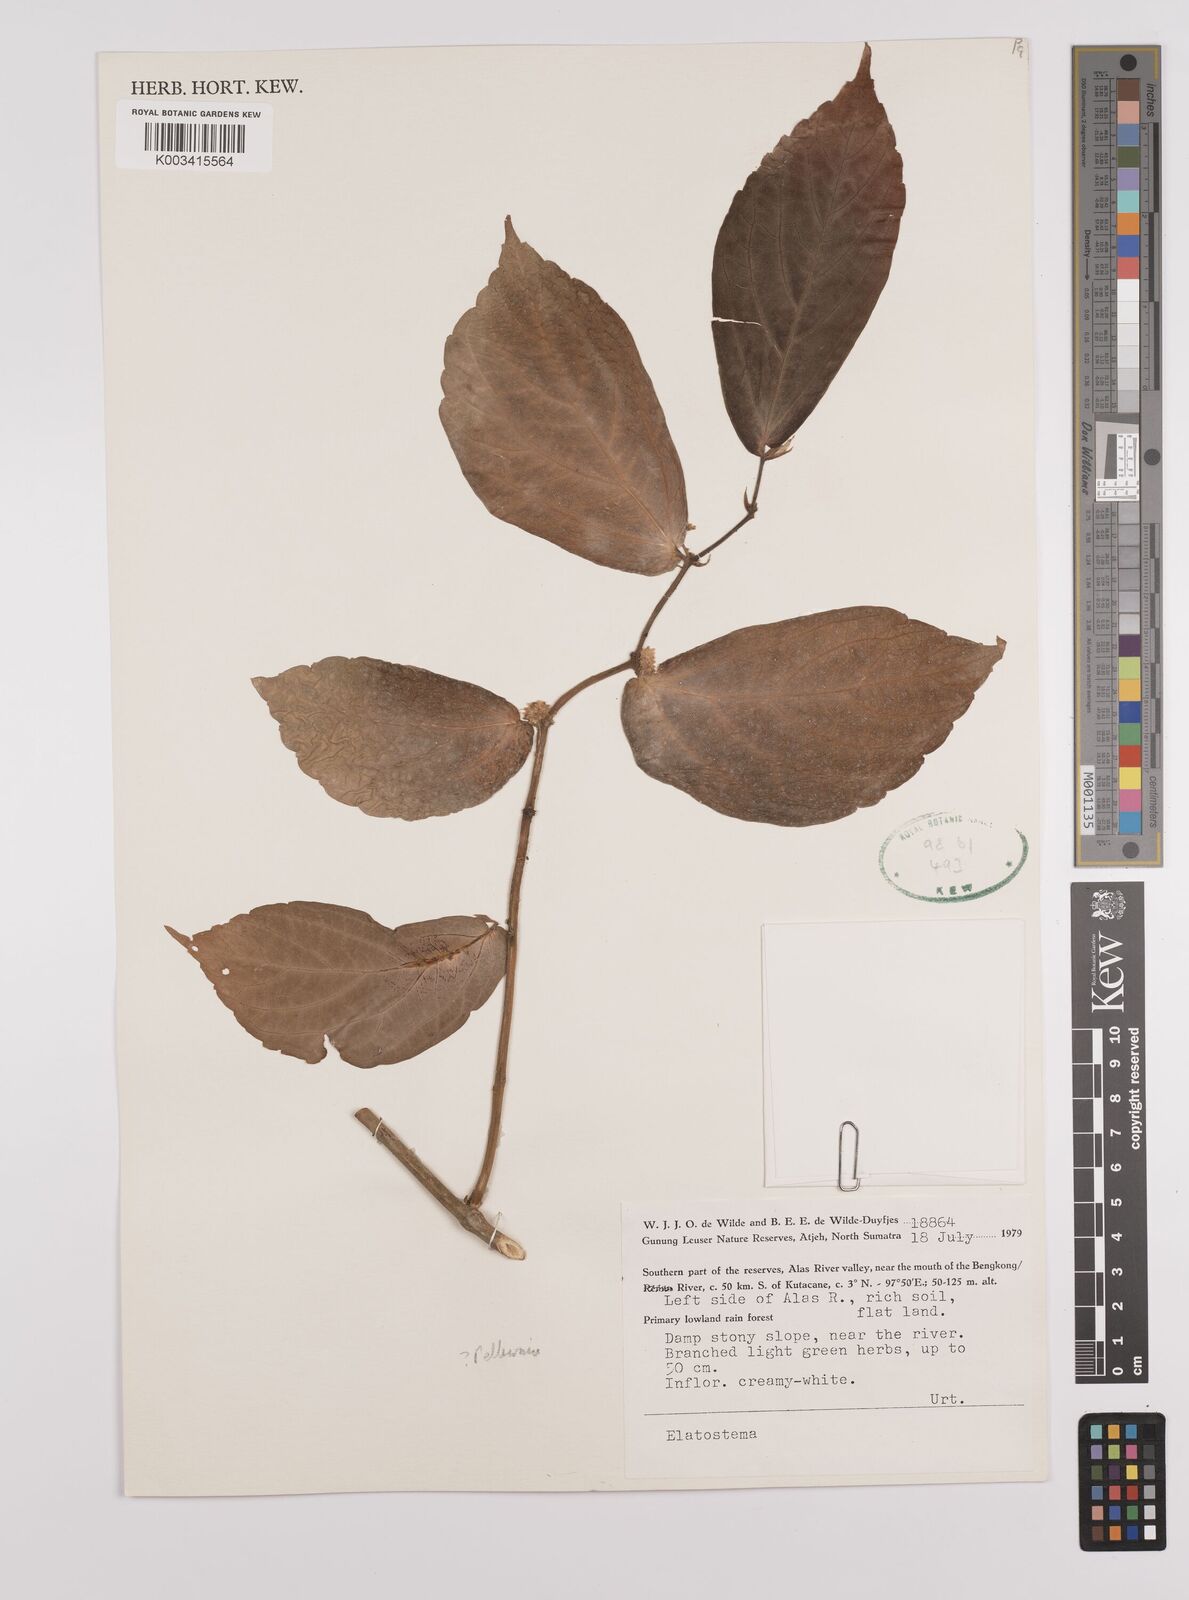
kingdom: Plantae
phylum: Tracheophyta
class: Magnoliopsida
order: Rosales
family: Urticaceae
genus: Elatostema
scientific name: Elatostema
